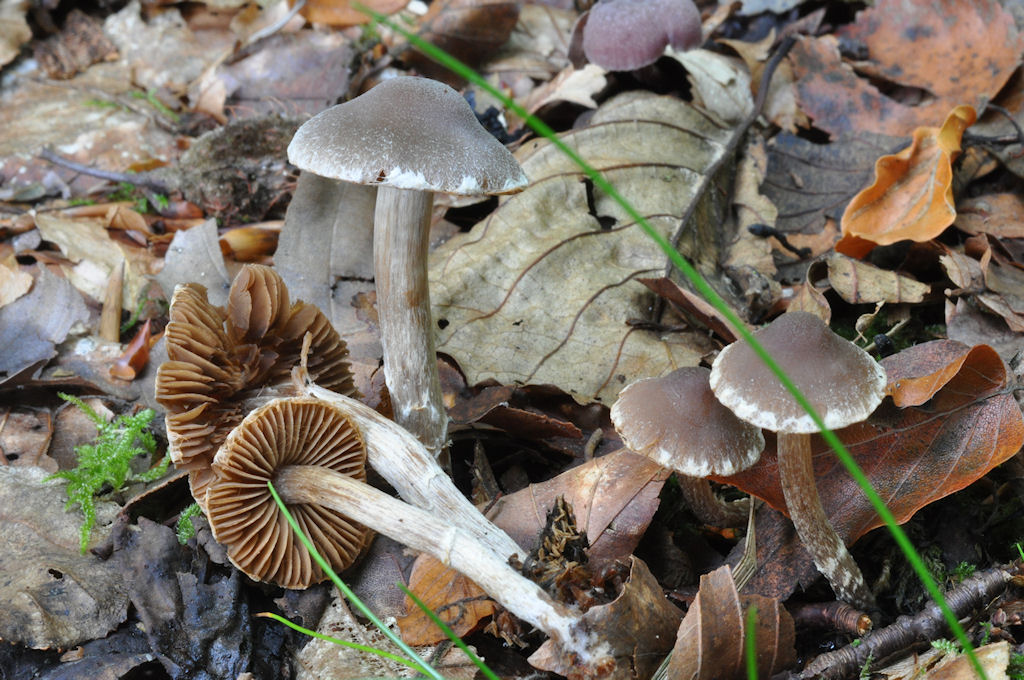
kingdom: Fungi
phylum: Basidiomycota
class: Agaricomycetes
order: Agaricales
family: Cortinariaceae
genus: Cortinarius
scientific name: Cortinarius
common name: pelargonie-slørhat
